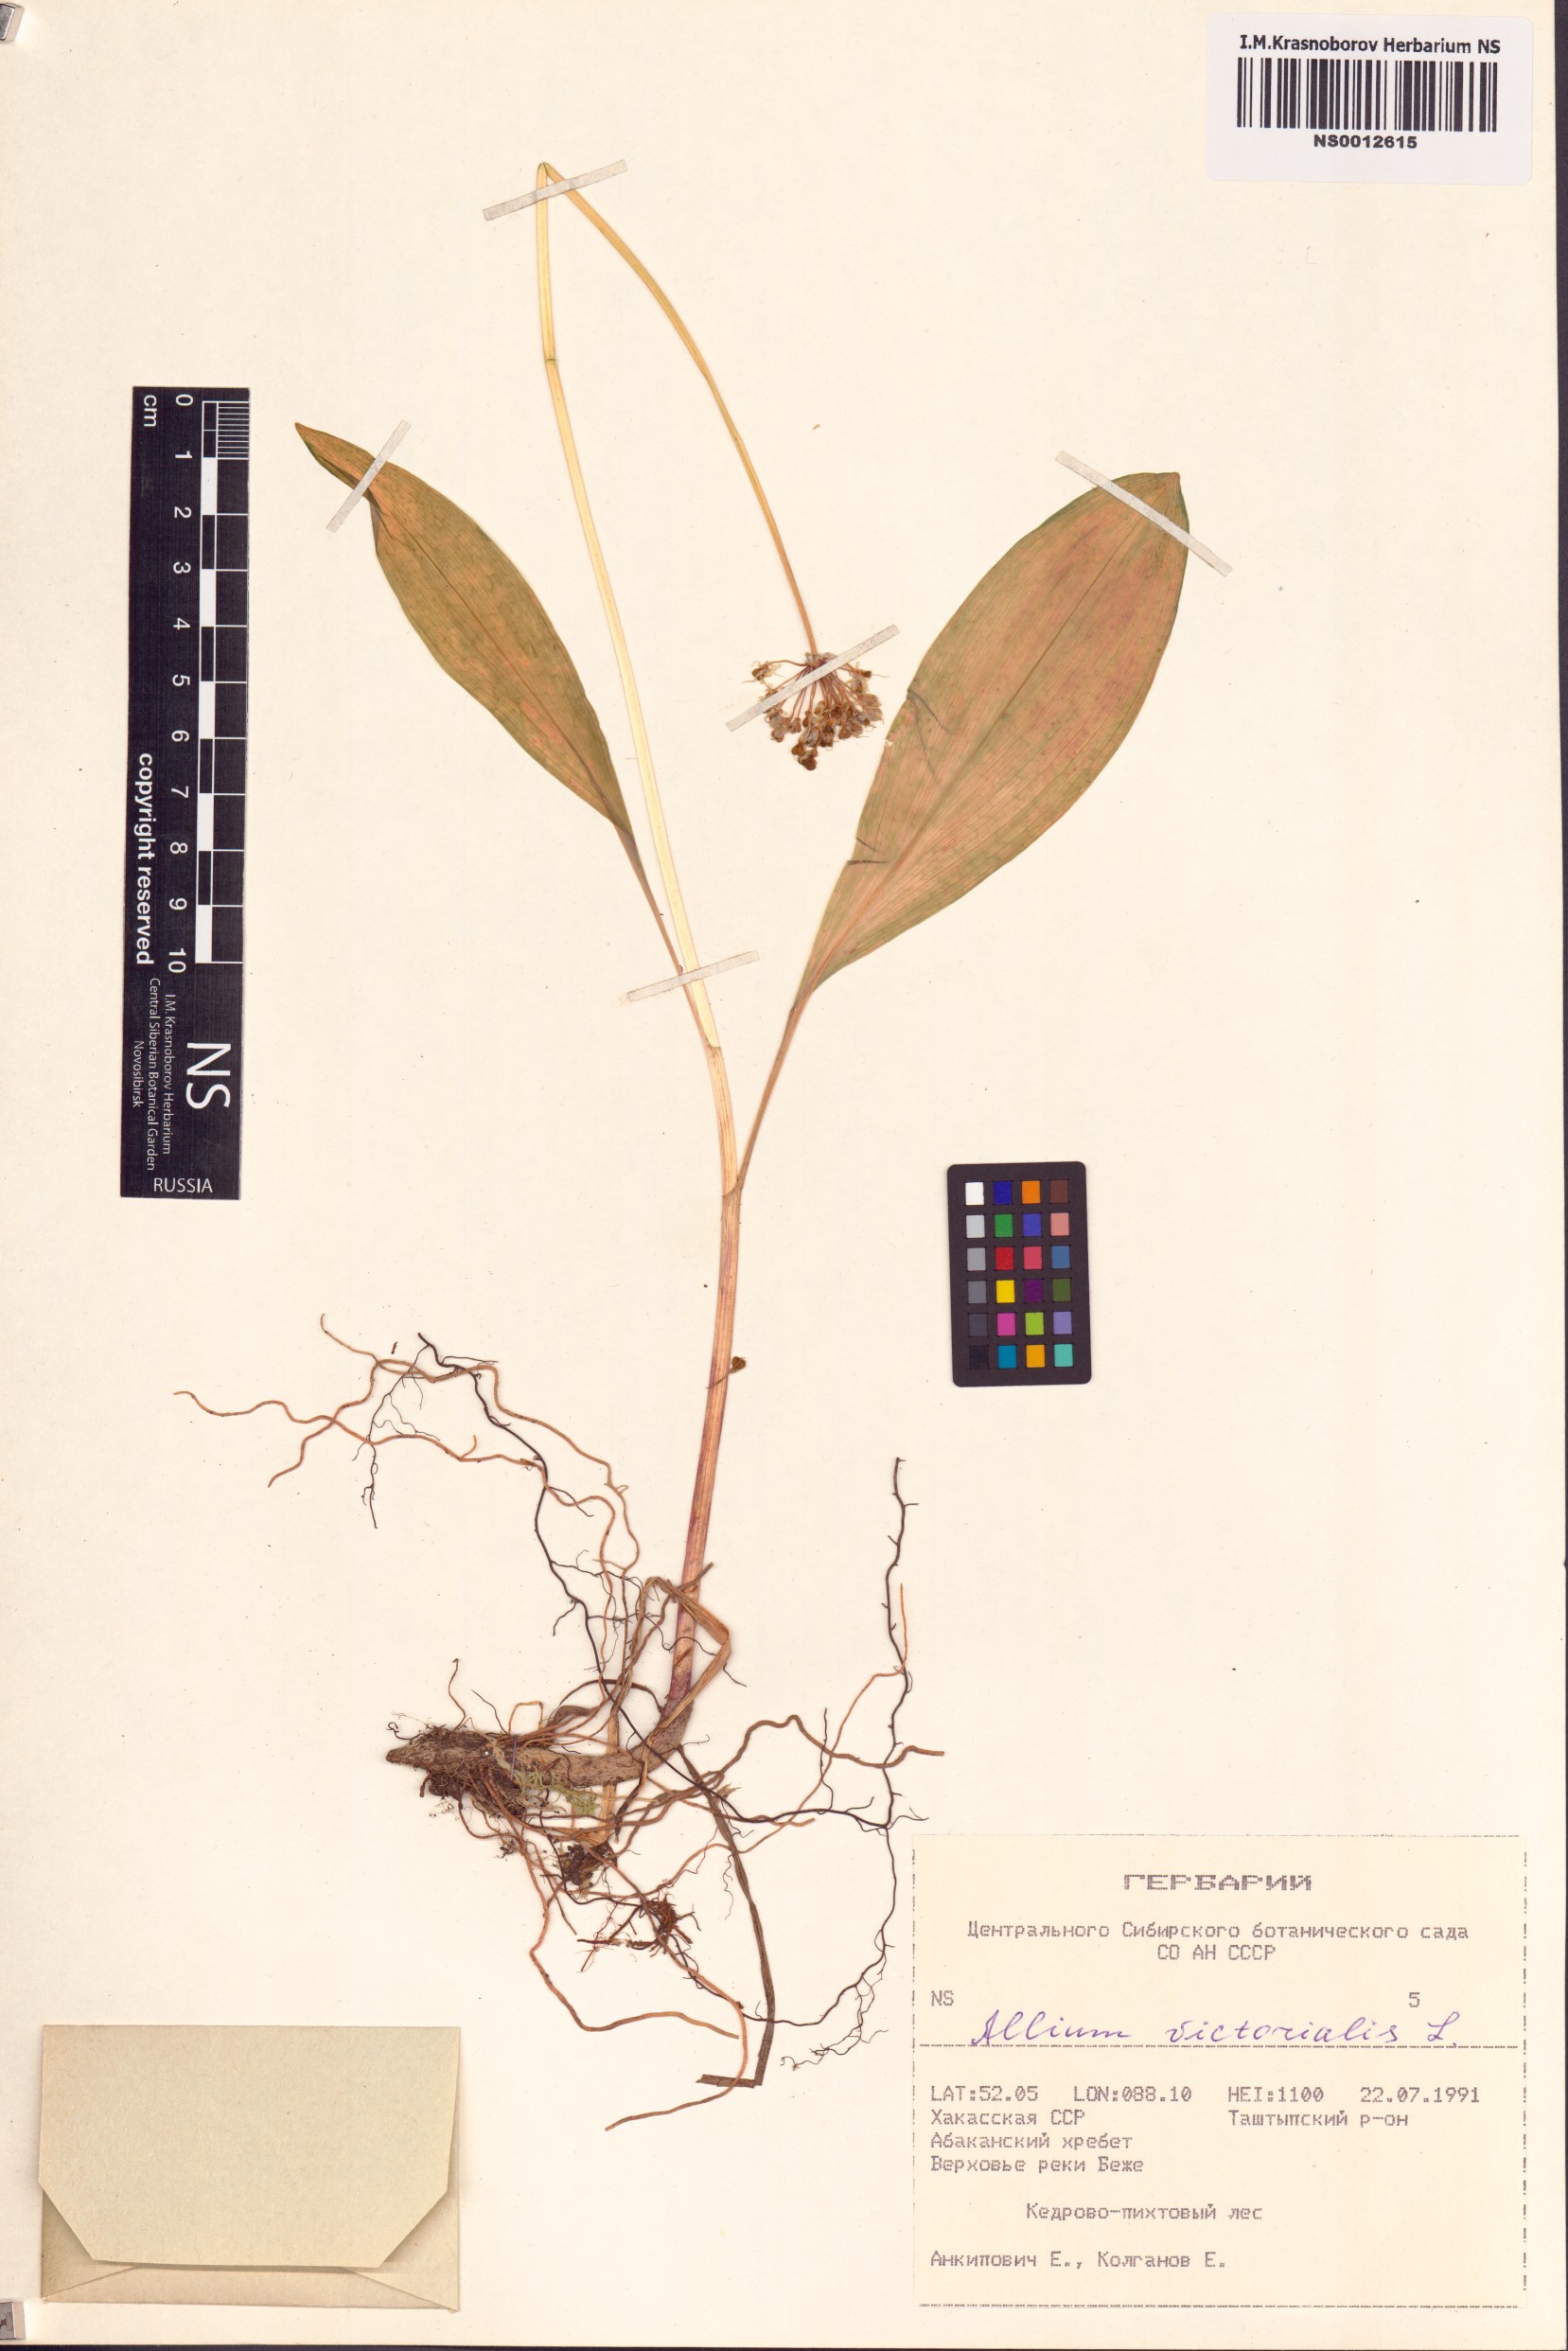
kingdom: Plantae
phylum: Tracheophyta
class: Liliopsida
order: Asparagales
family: Amaryllidaceae
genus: Allium
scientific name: Allium microdictyon
